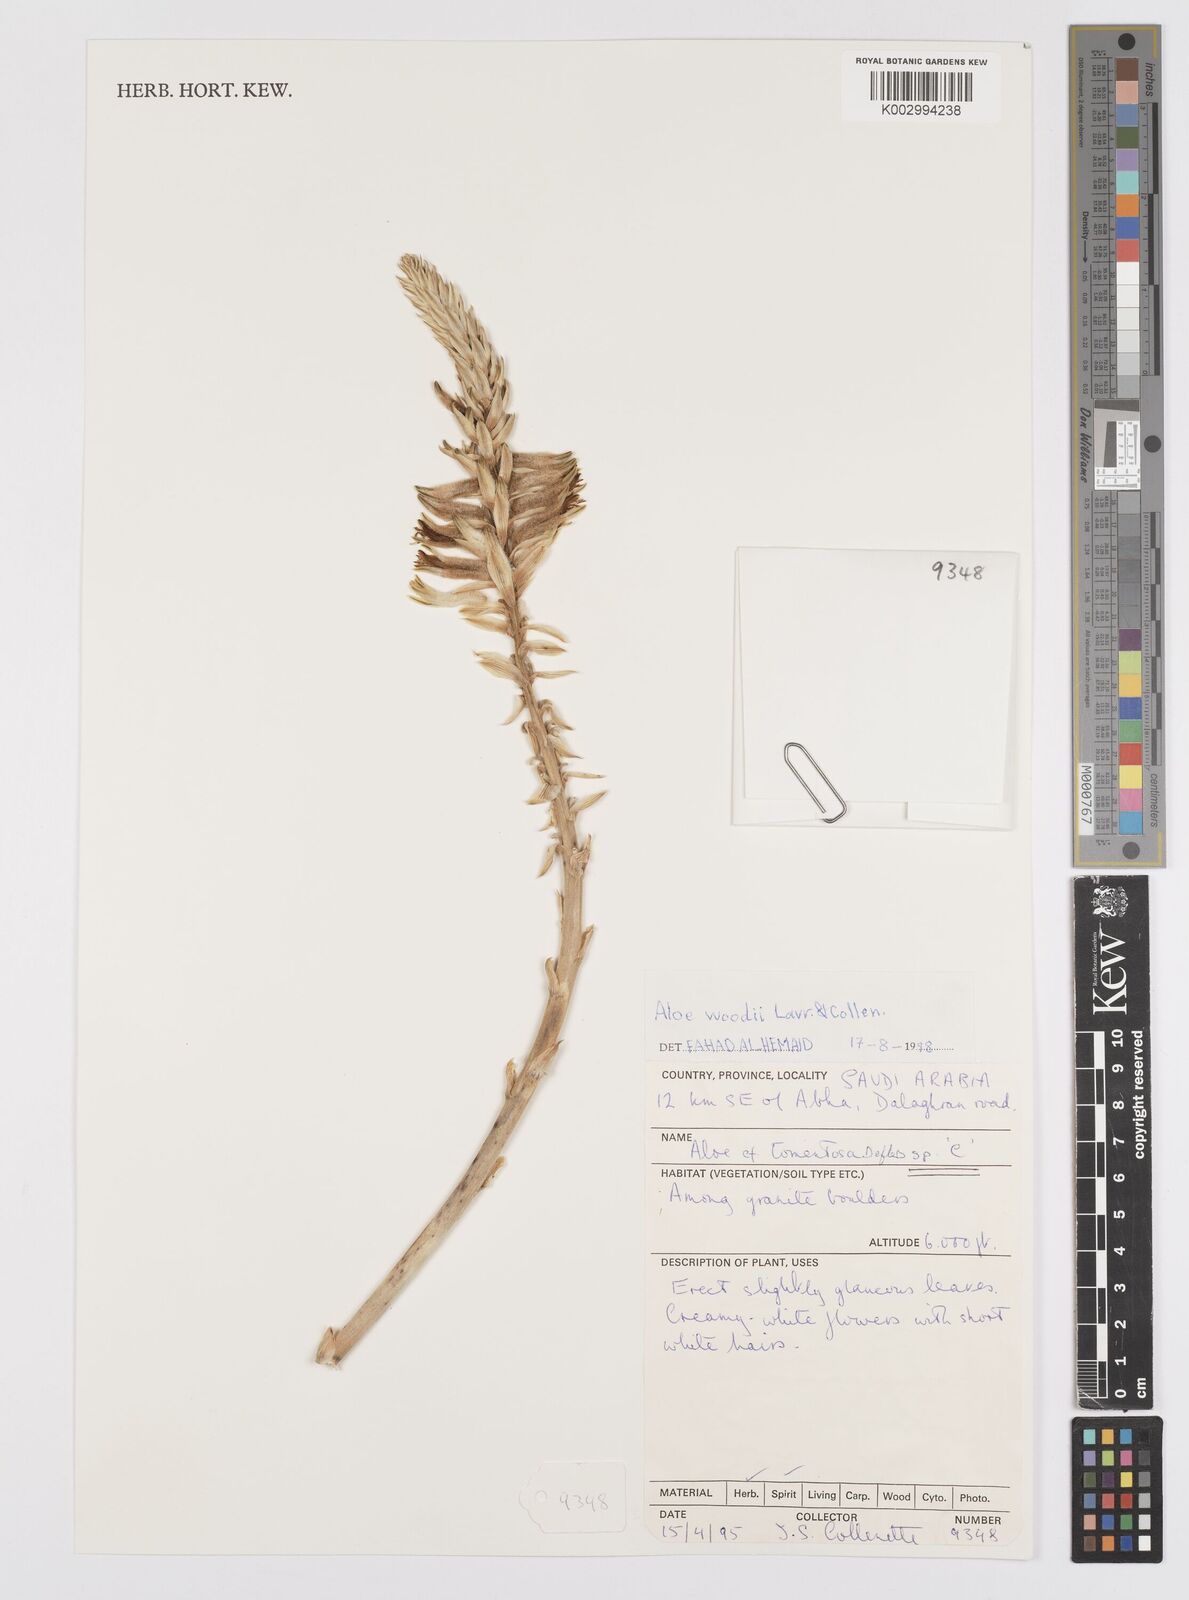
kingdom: Plantae
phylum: Tracheophyta
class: Liliopsida
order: Asparagales
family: Asphodelaceae
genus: Aloe
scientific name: Aloe woodii
